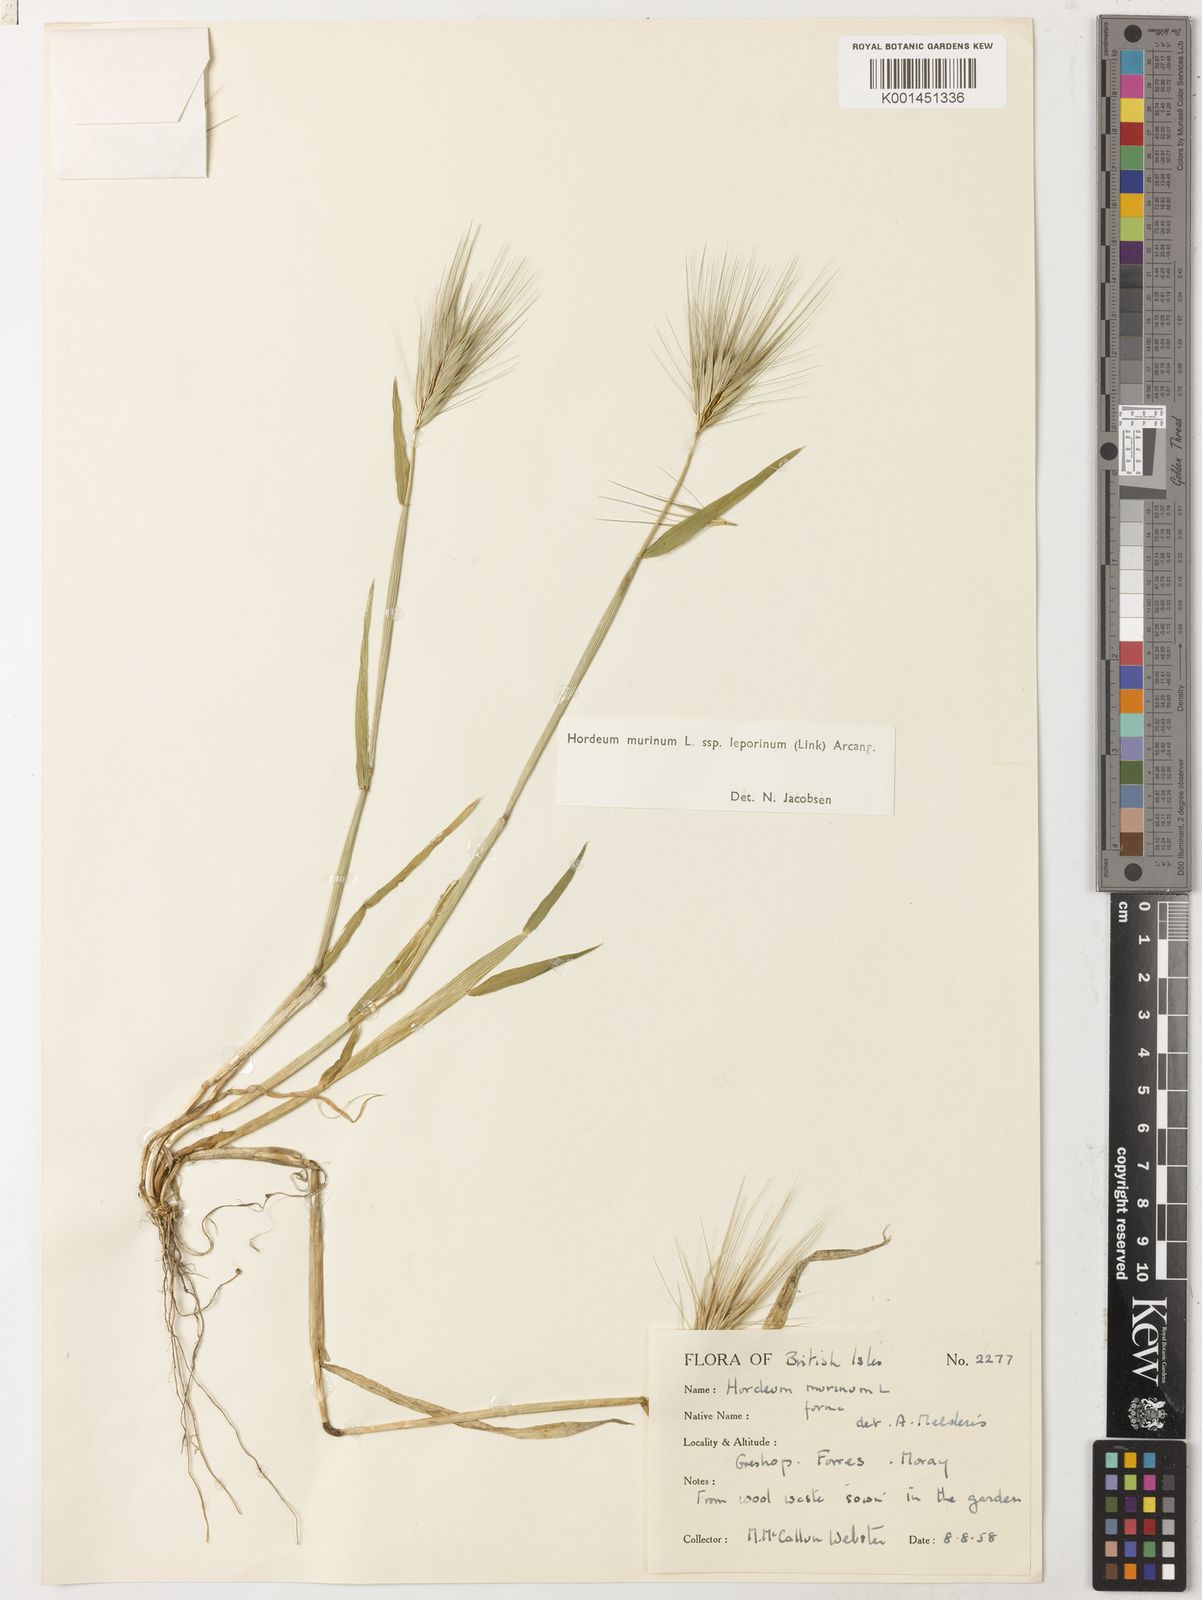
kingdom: Plantae
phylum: Tracheophyta
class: Liliopsida
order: Poales
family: Poaceae
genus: Hordeum
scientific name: Hordeum murinum
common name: Wall barley
